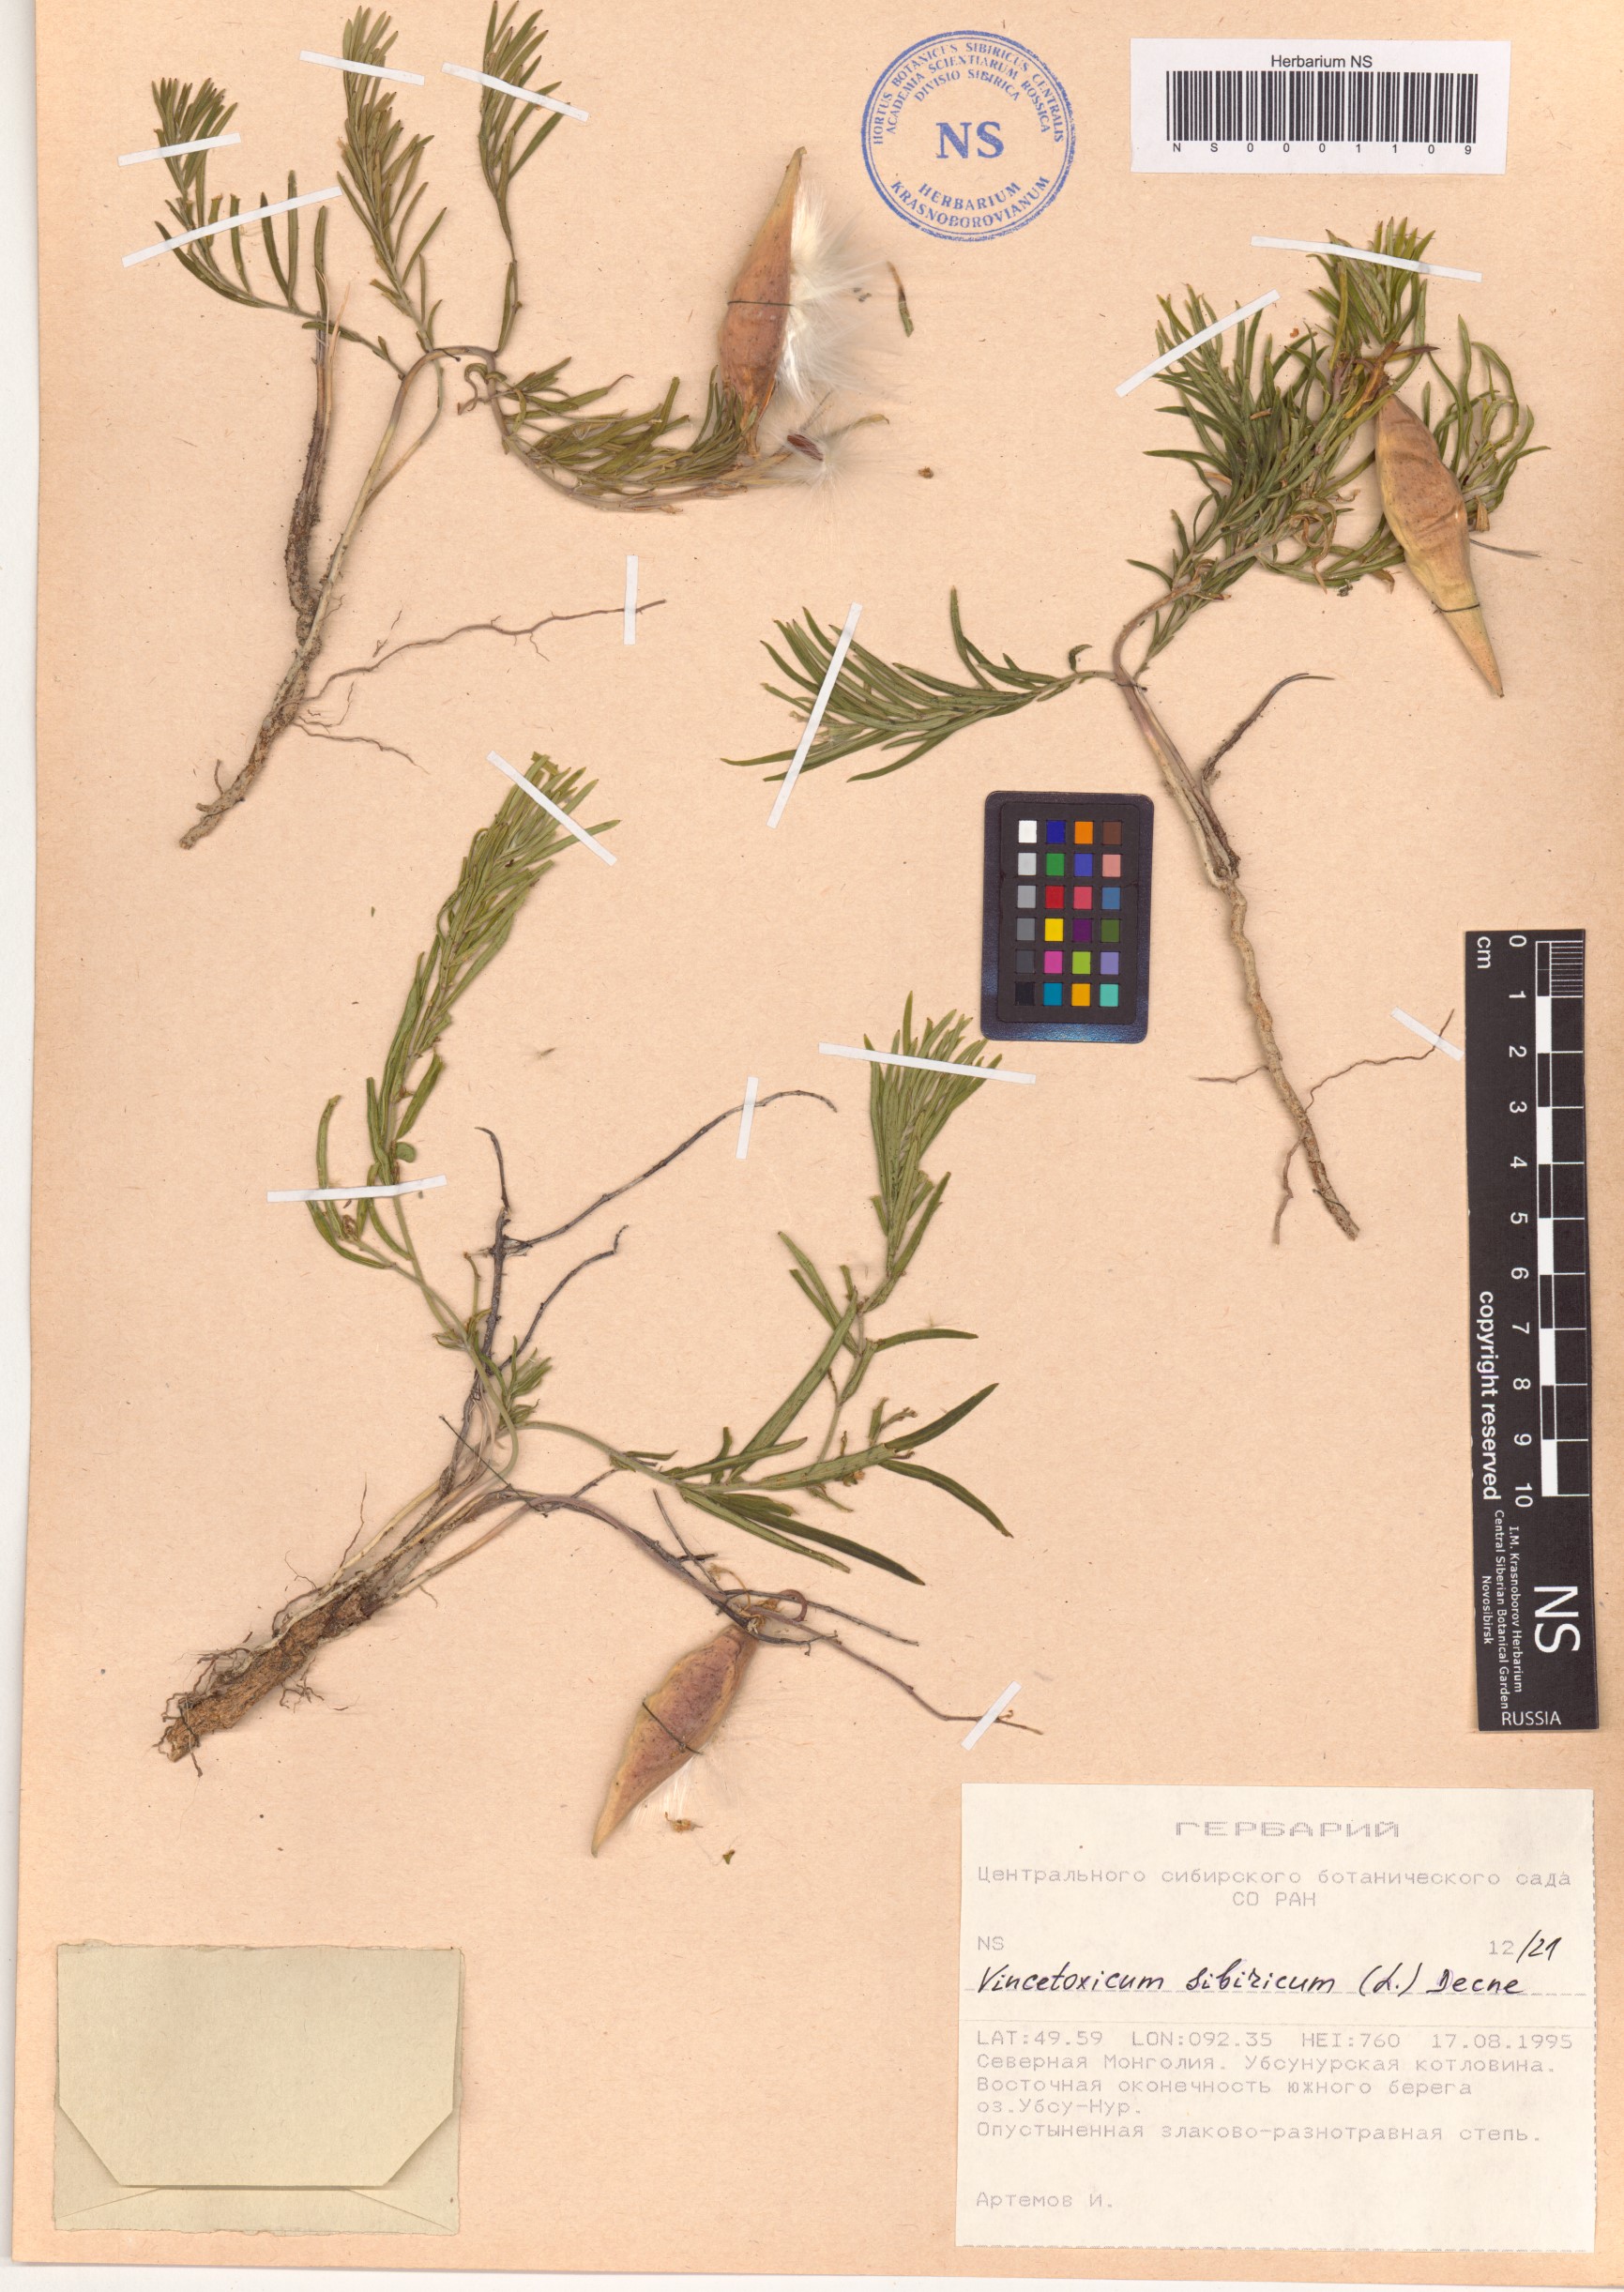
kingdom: Plantae
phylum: Tracheophyta
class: Magnoliopsida
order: Gentianales
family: Apocynaceae
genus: Cynanchum
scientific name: Cynanchum thesioides
